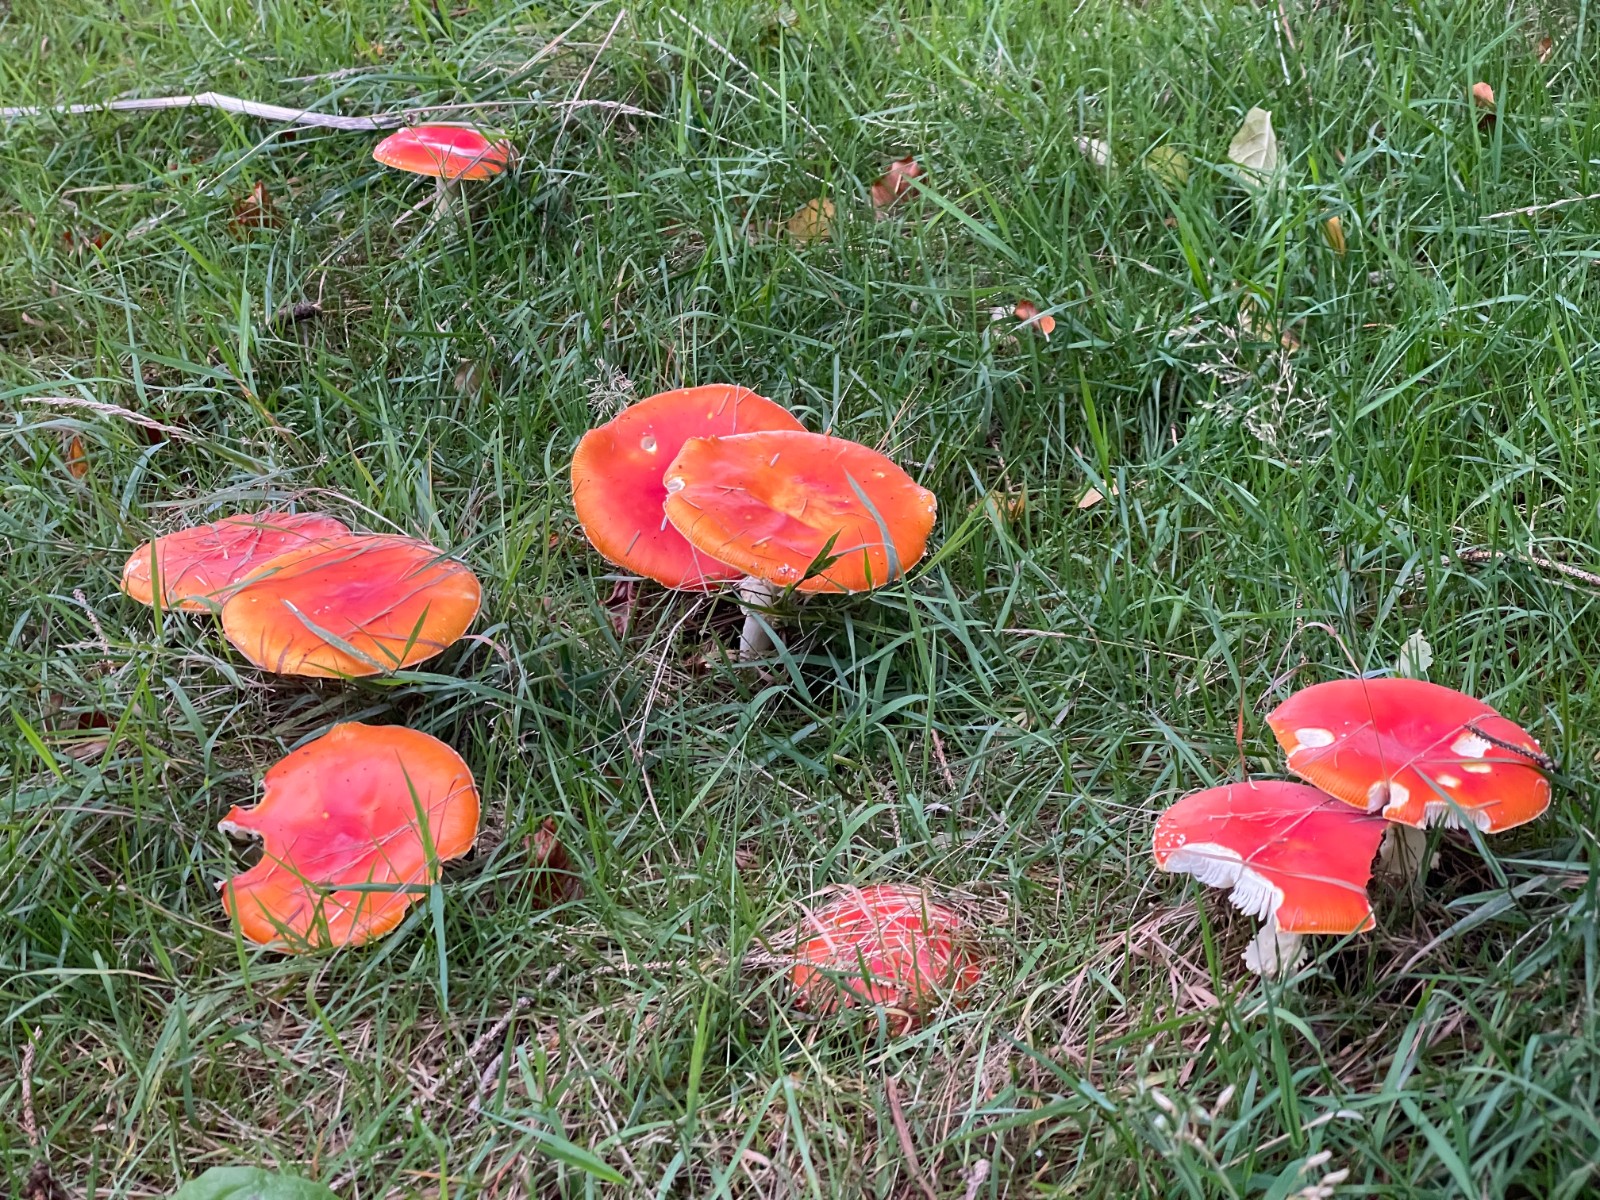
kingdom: Fungi
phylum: Basidiomycota
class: Agaricomycetes
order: Agaricales
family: Amanitaceae
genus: Amanita
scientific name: Amanita muscaria
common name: rød fluesvamp
